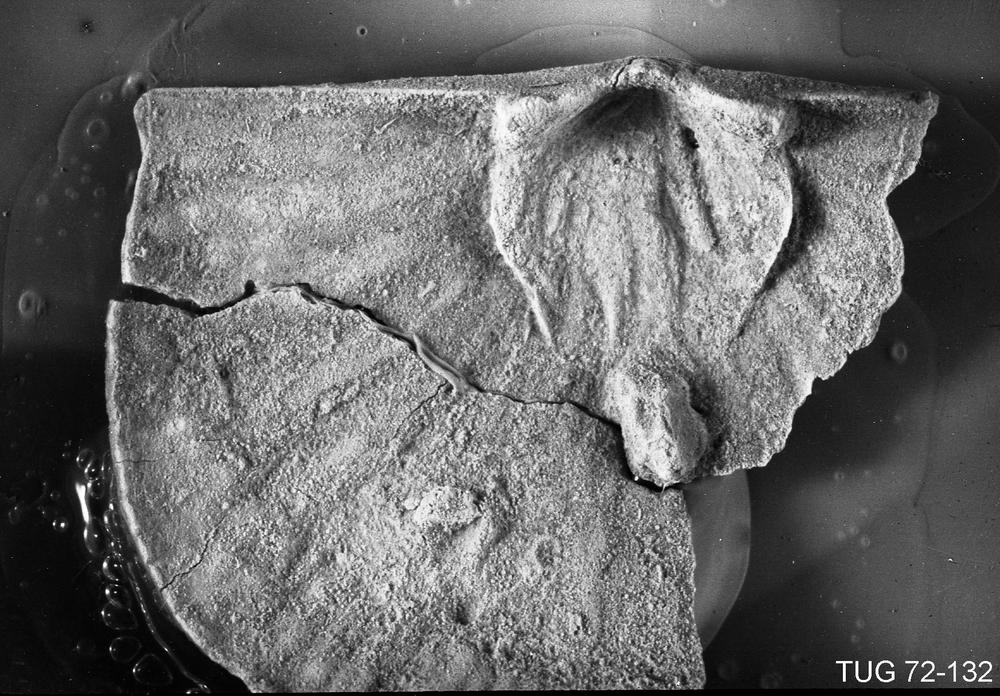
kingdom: Animalia
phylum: Brachiopoda
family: Strophomenidae
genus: Holtedahlina
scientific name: Holtedahlina subtilis
